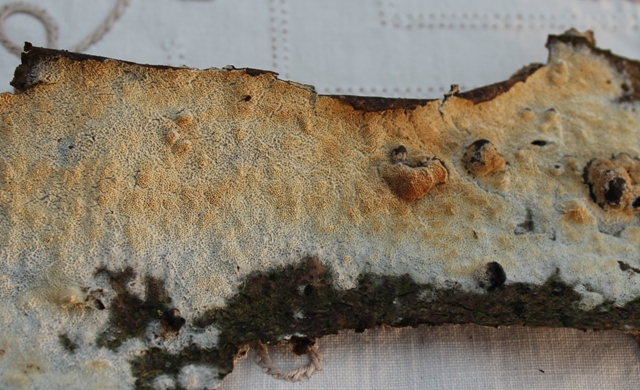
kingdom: Fungi
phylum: Basidiomycota
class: Agaricomycetes
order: Hymenochaetales
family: Schizoporaceae
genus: Xylodon
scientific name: Xylodon subtropicus
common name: labyrint-tandsvamp
